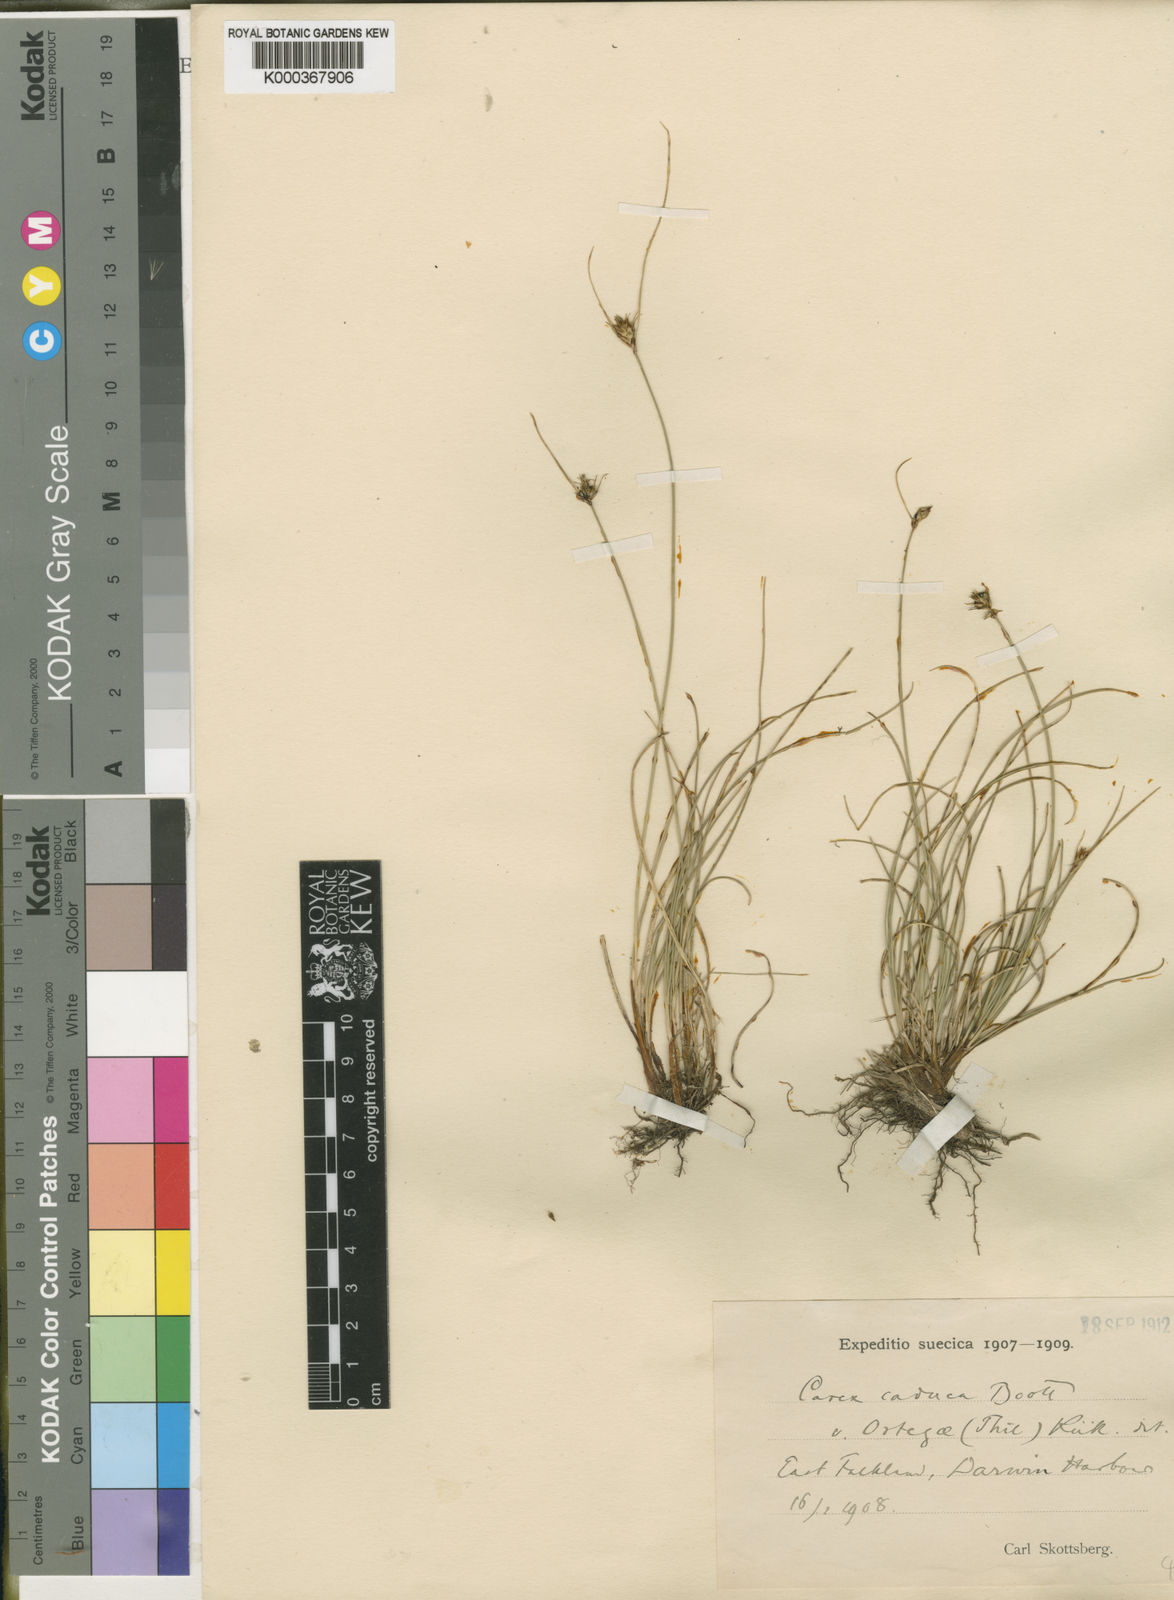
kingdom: Plantae
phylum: Tracheophyta
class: Liliopsida
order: Poales
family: Cyperaceae
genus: Carex
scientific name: Carex caduca
